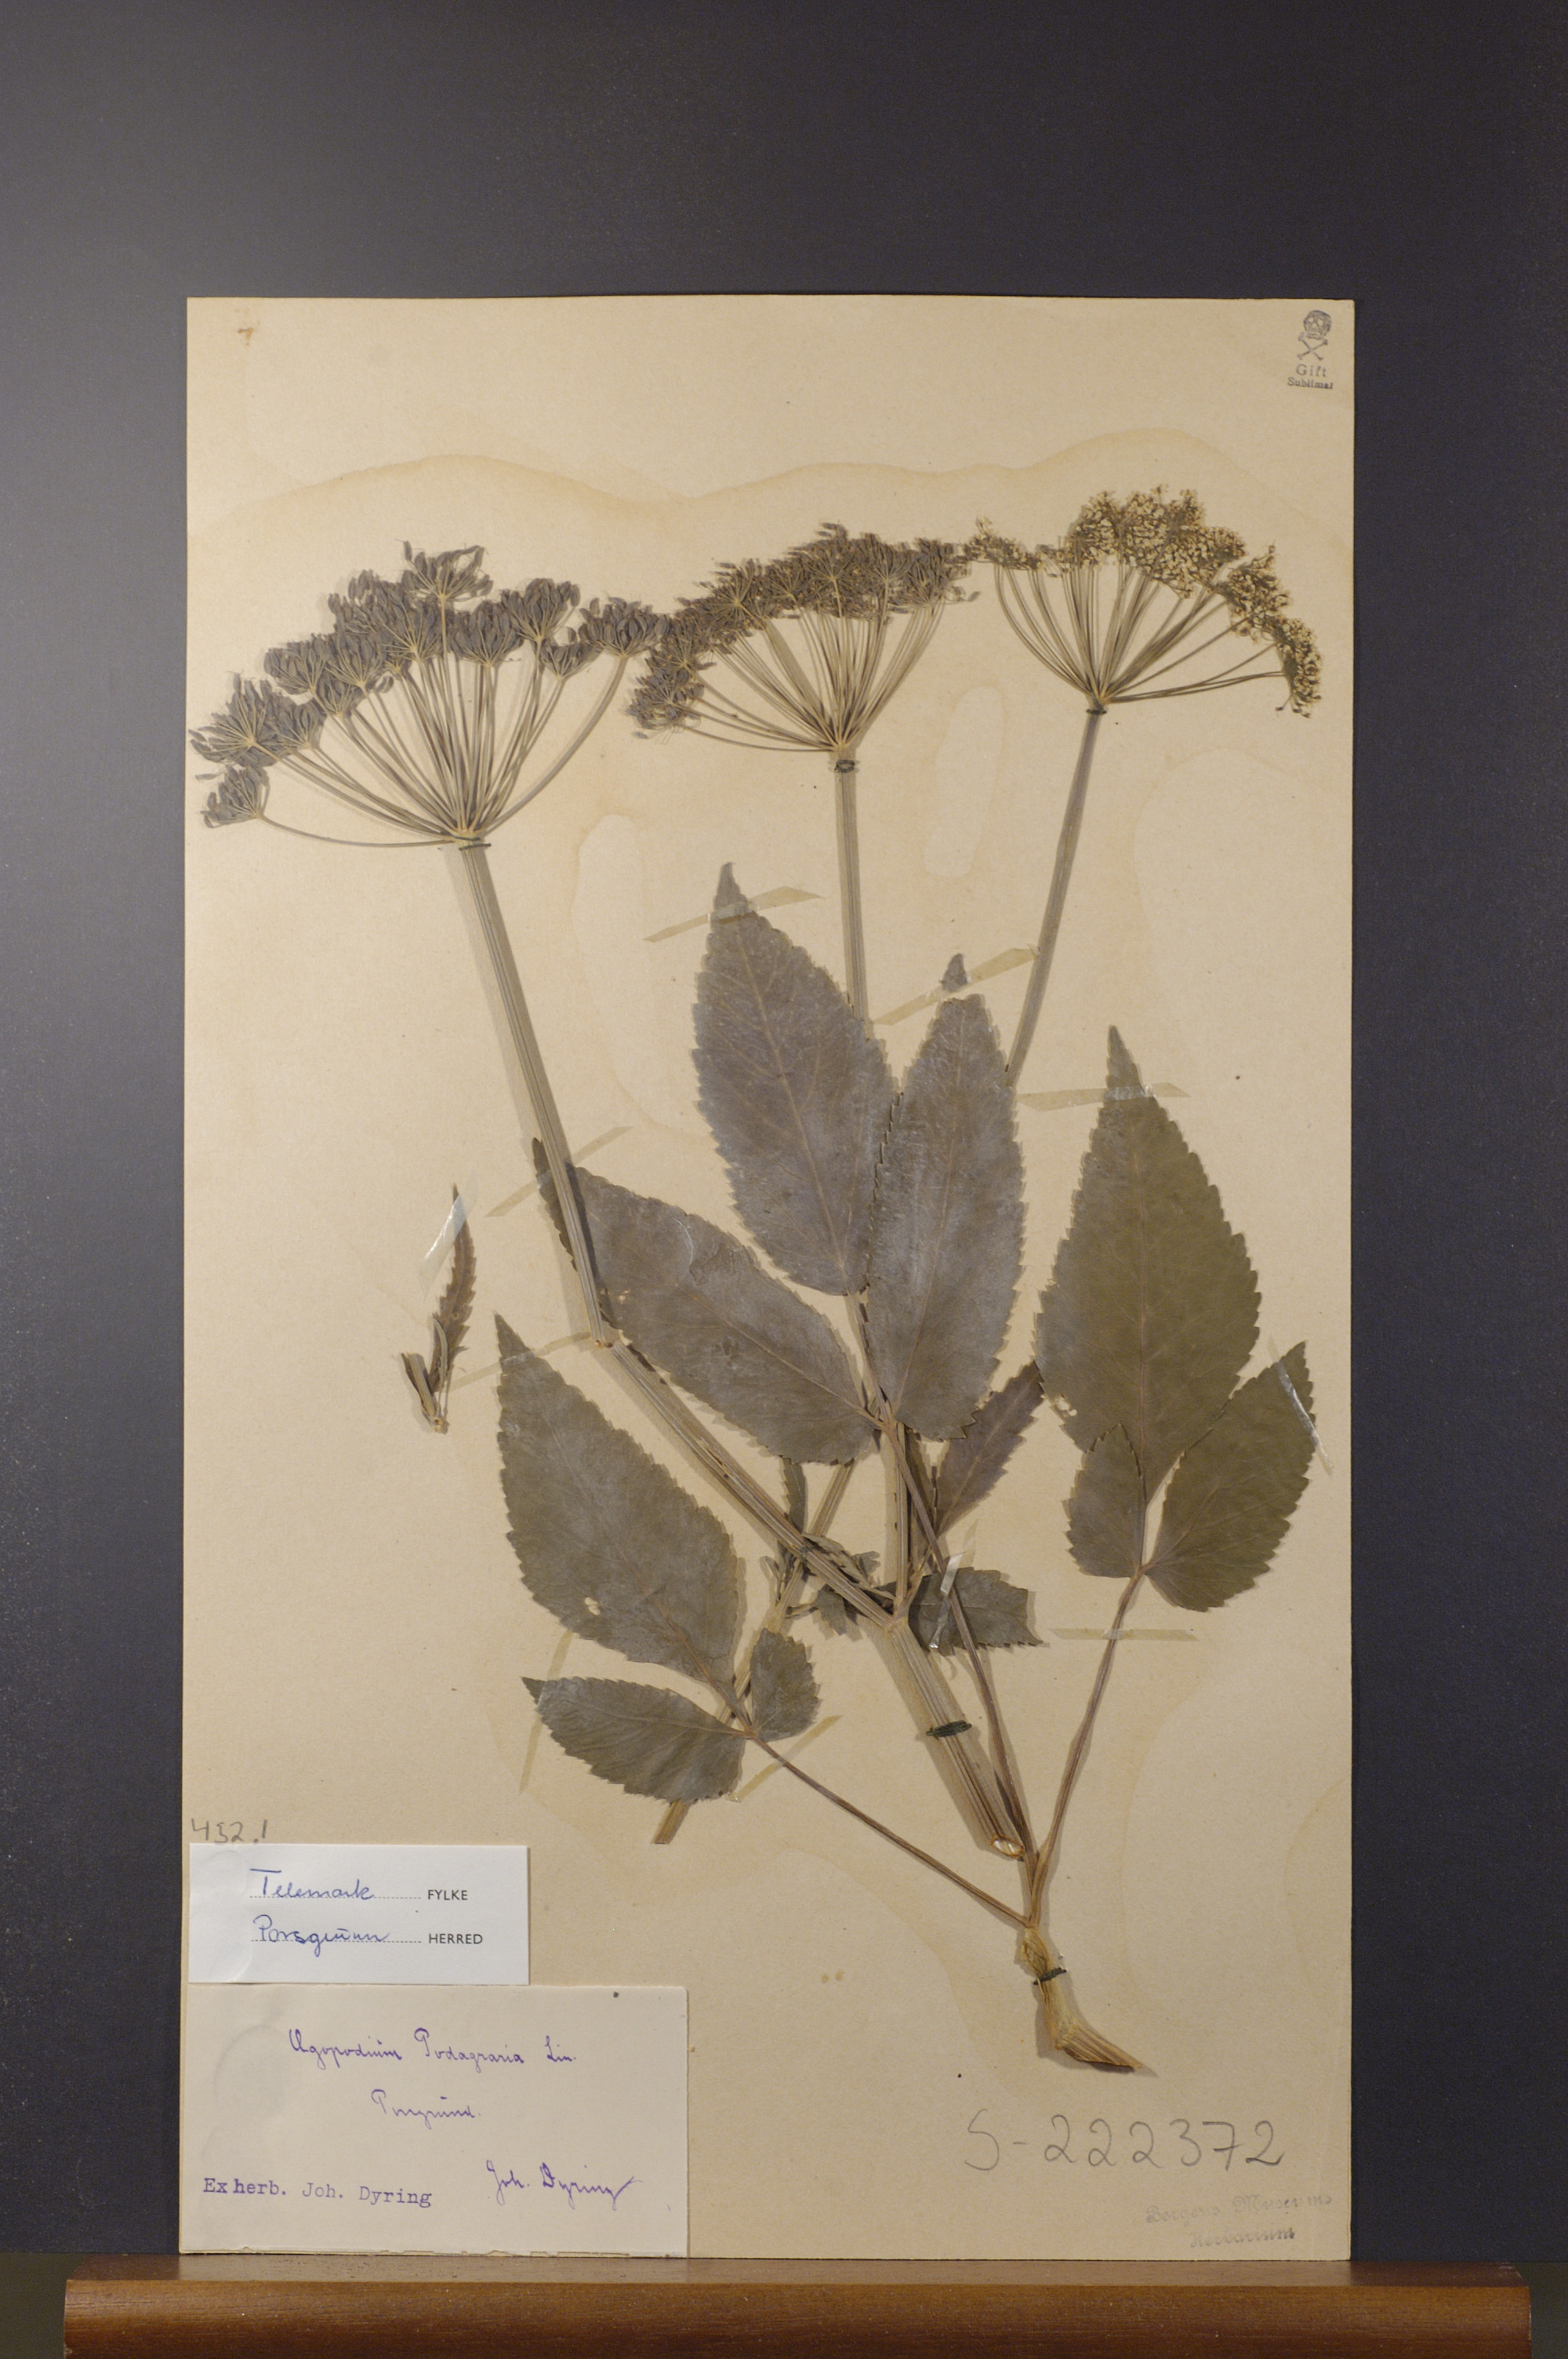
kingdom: Plantae
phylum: Tracheophyta
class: Magnoliopsida
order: Apiales
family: Apiaceae
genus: Aegopodium
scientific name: Aegopodium podagraria
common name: Ground-elder
